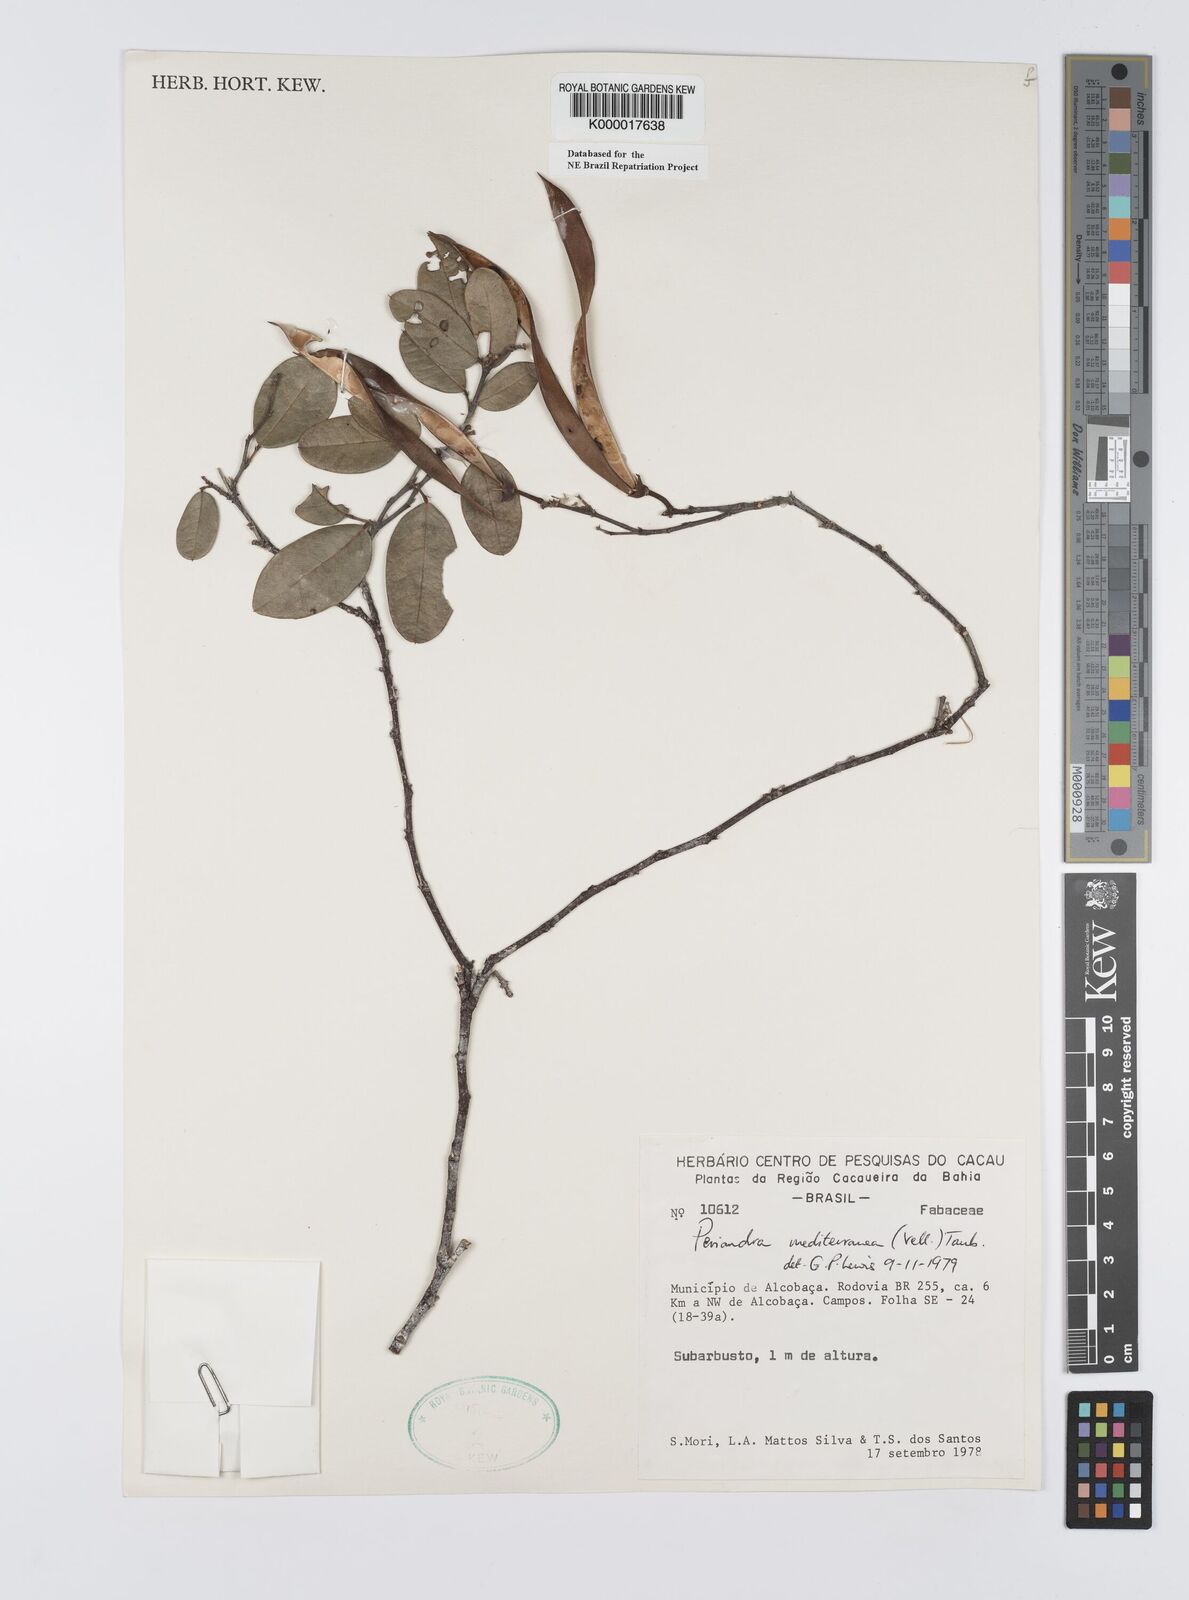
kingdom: Plantae
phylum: Tracheophyta
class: Magnoliopsida
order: Fabales
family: Fabaceae
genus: Periandra
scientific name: Periandra mediterranea
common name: Brazilian licorice
